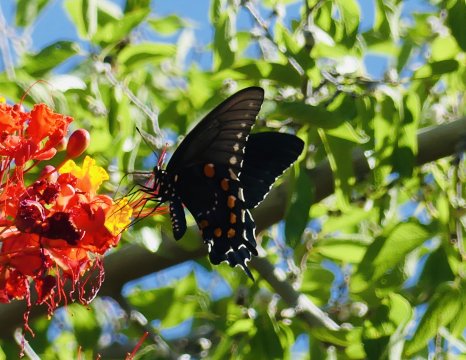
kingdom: Animalia
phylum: Arthropoda
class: Insecta
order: Lepidoptera
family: Papilionidae
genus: Battus
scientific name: Battus philenor
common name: Pipevine Swallowtail
